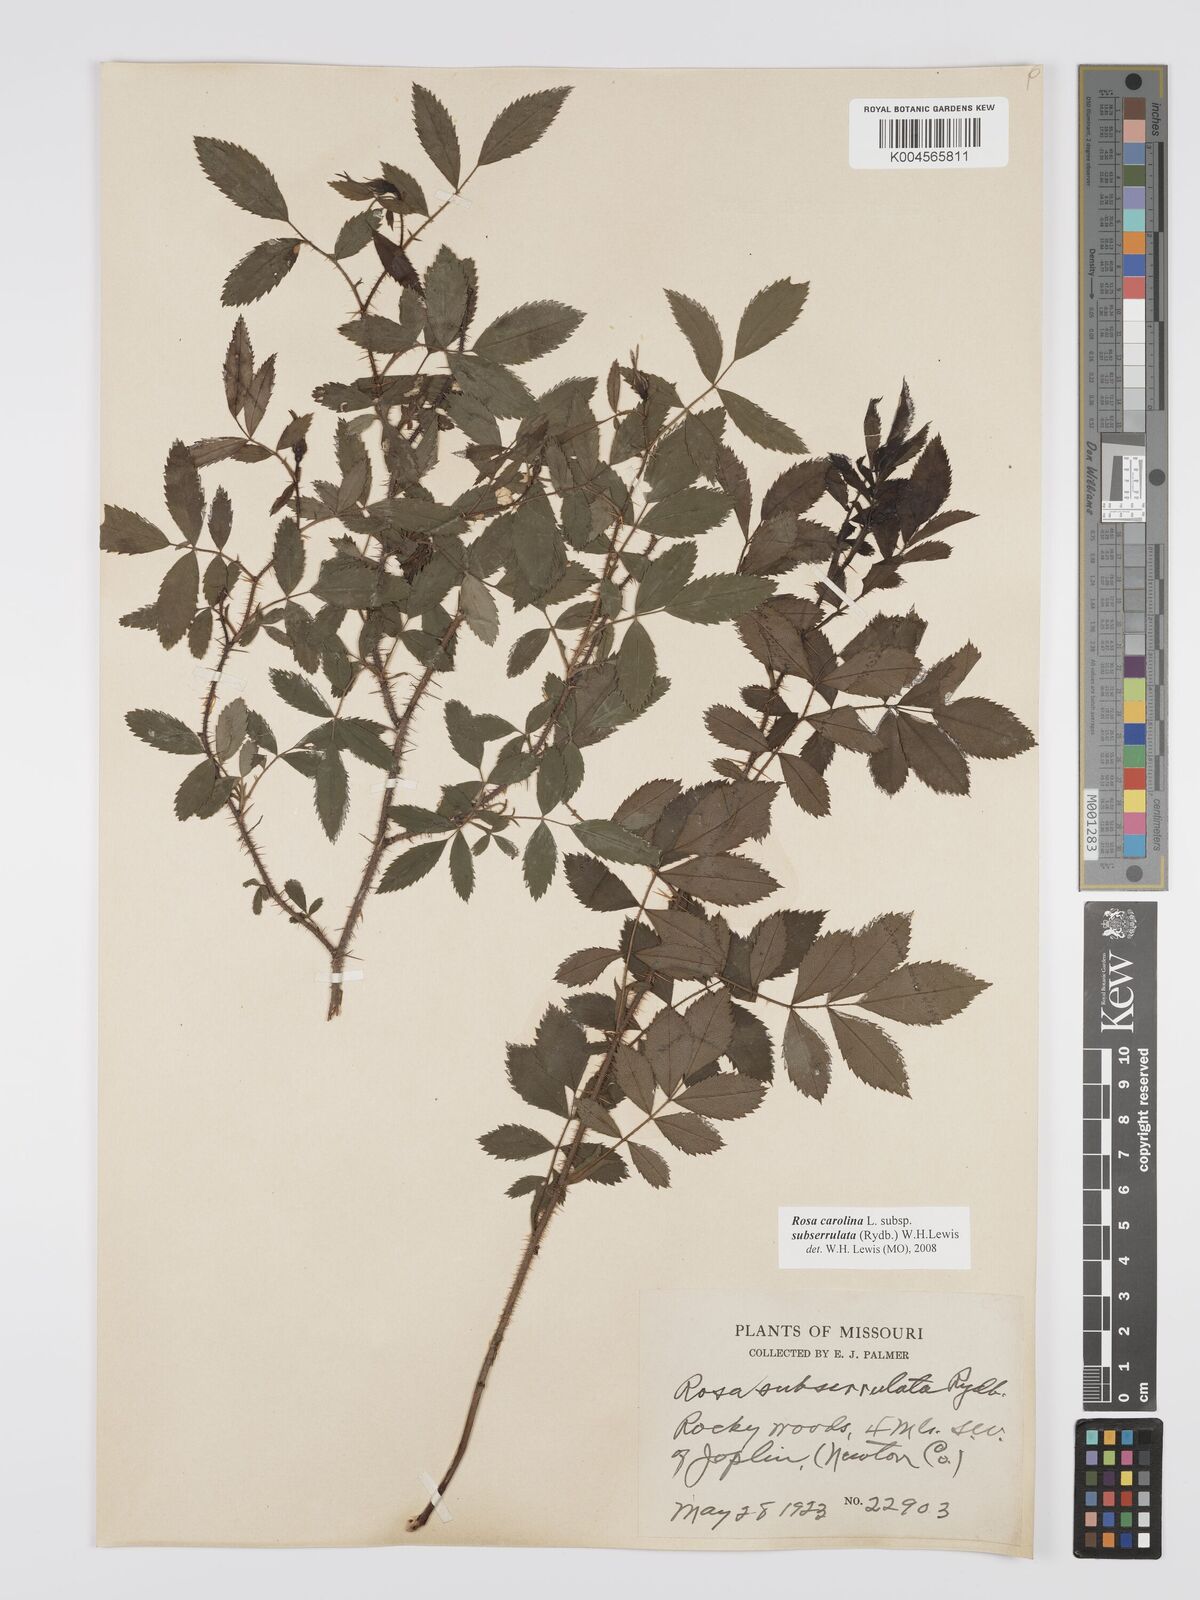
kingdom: Plantae
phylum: Tracheophyta
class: Magnoliopsida
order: Rosales
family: Rosaceae
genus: Rosa
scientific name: Rosa carolina
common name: Pasture rose
